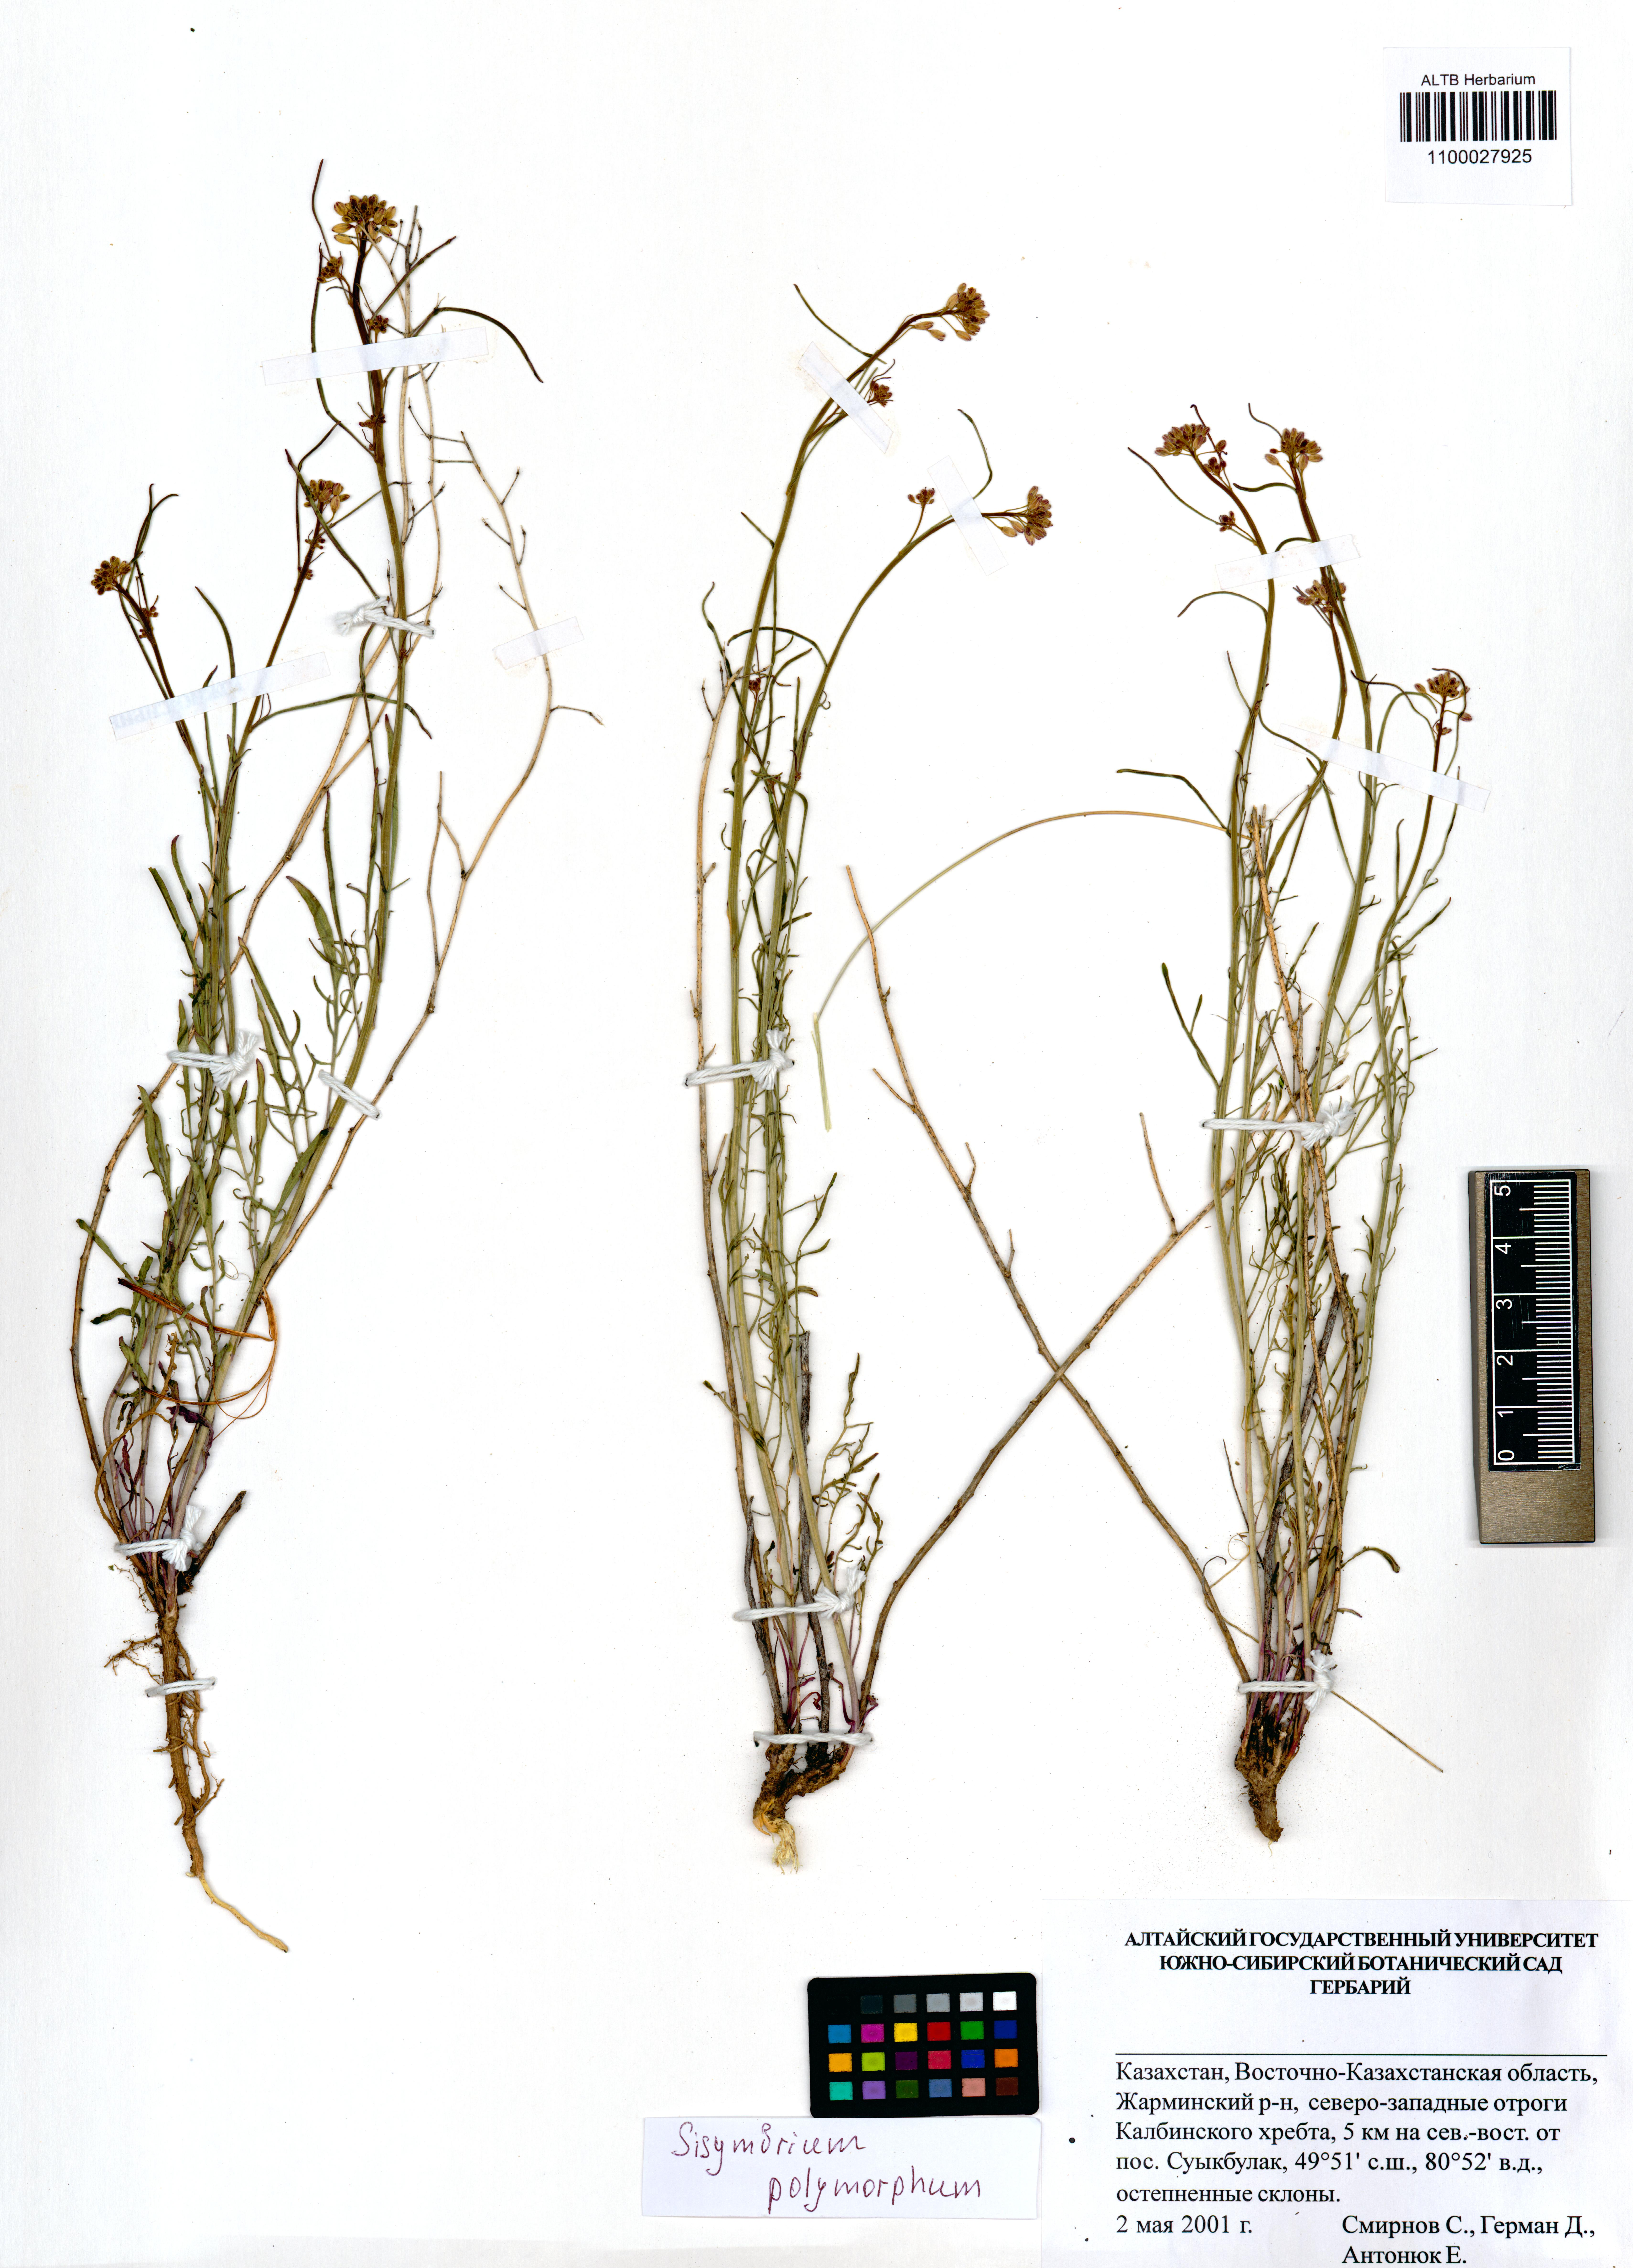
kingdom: Plantae
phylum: Tracheophyta
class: Magnoliopsida
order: Brassicales
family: Brassicaceae
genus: Sisymbrium
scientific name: Sisymbrium polymorphum
